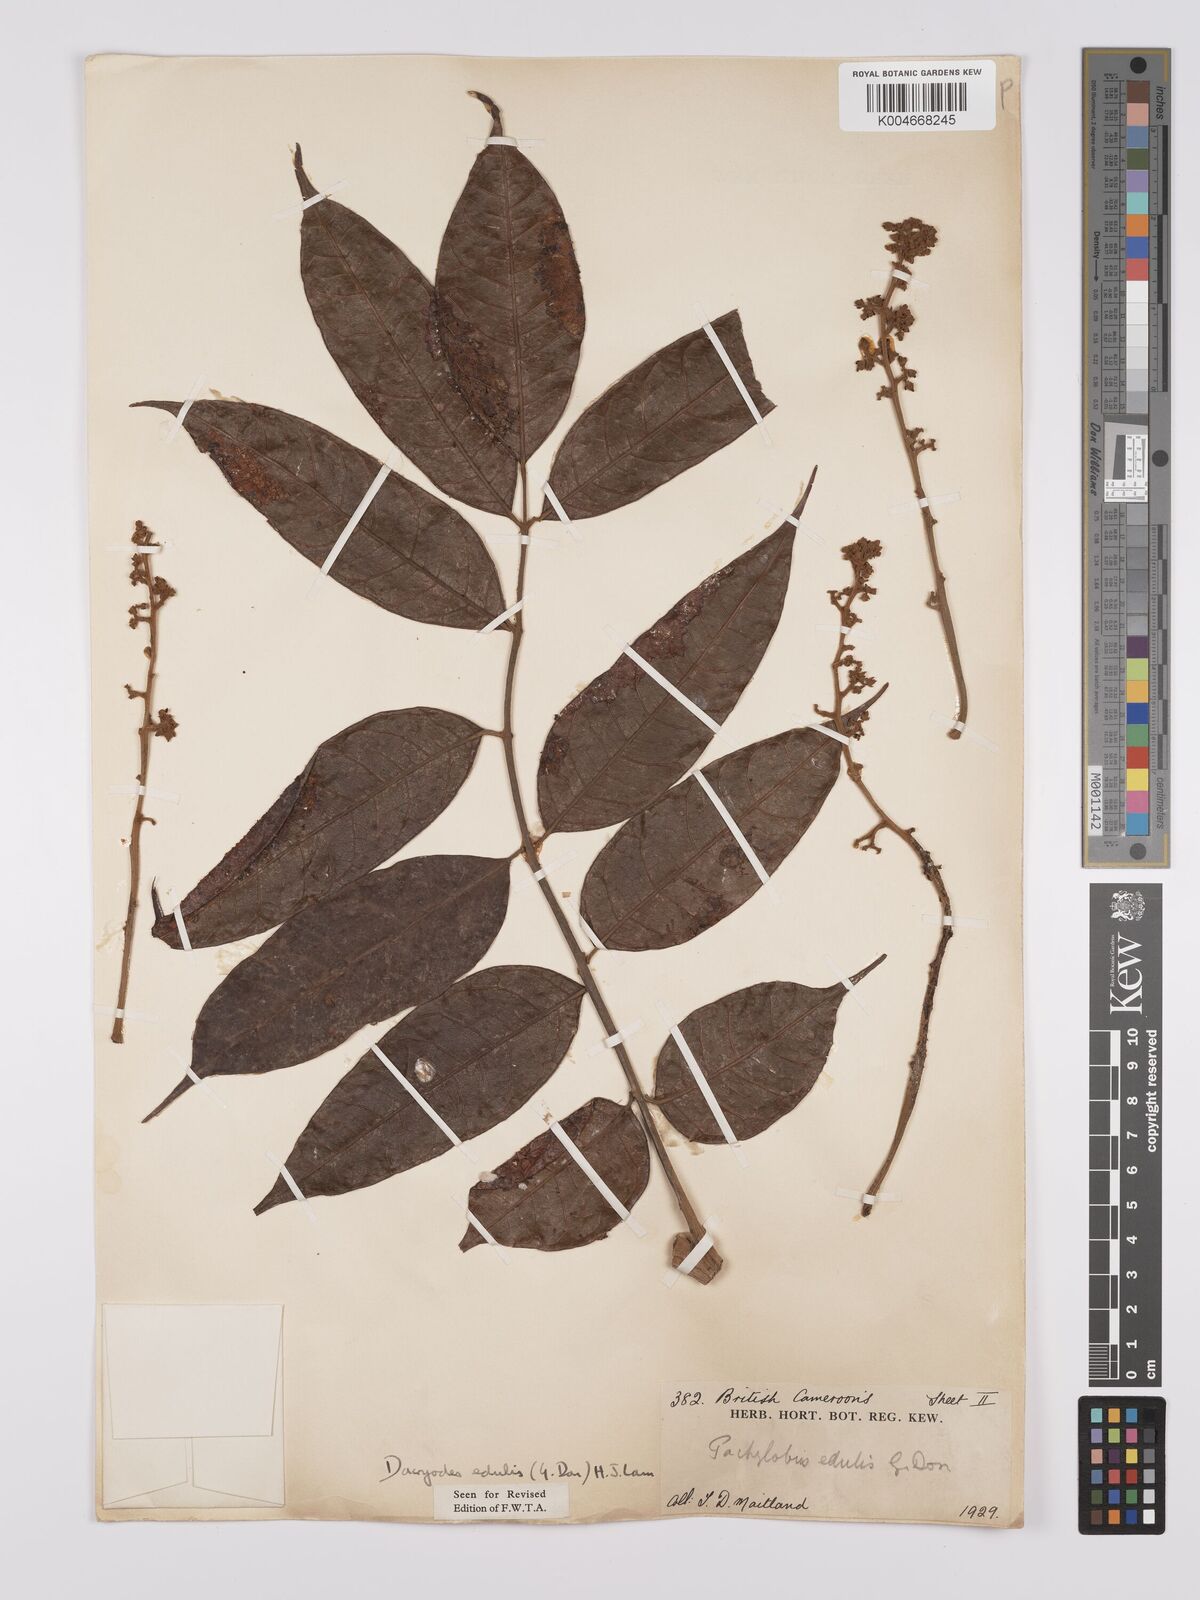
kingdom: Plantae
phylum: Tracheophyta
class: Magnoliopsida
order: Sapindales
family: Burseraceae
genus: Pachylobus
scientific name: Pachylobus edulis
